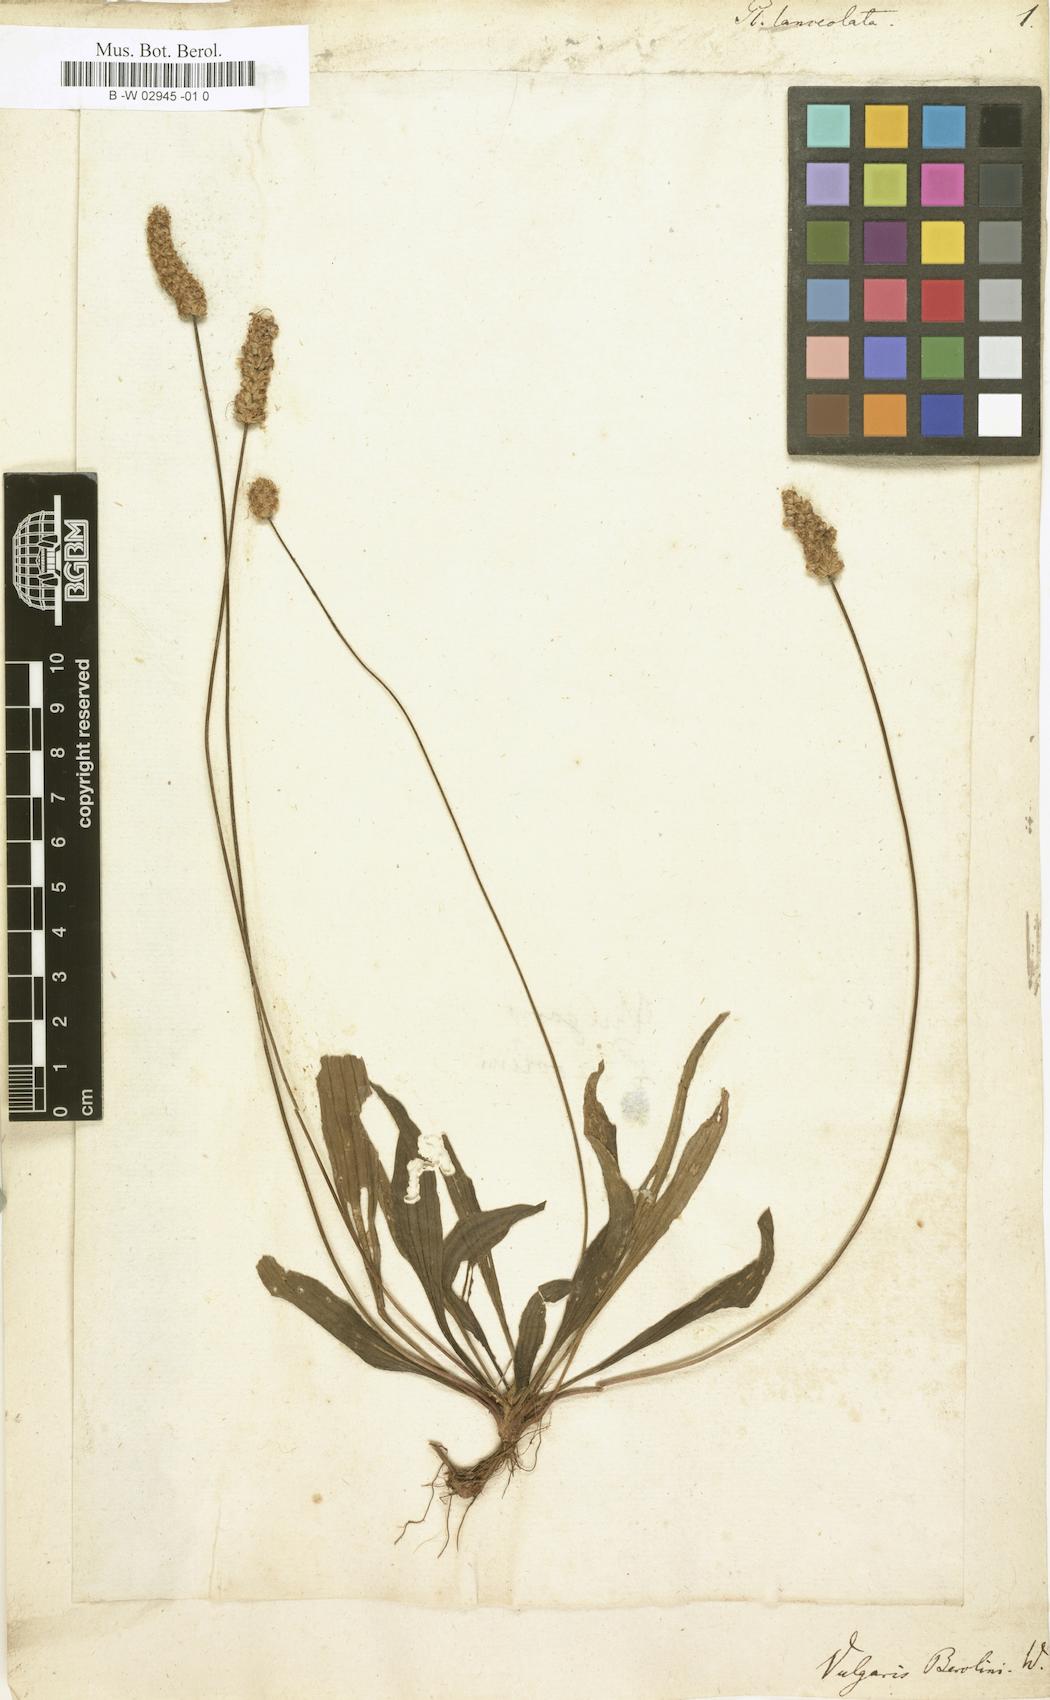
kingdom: Plantae
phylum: Tracheophyta
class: Magnoliopsida
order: Lamiales
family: Plantaginaceae
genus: Plantago
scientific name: Plantago lanceolata
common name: Ribwort plantain
